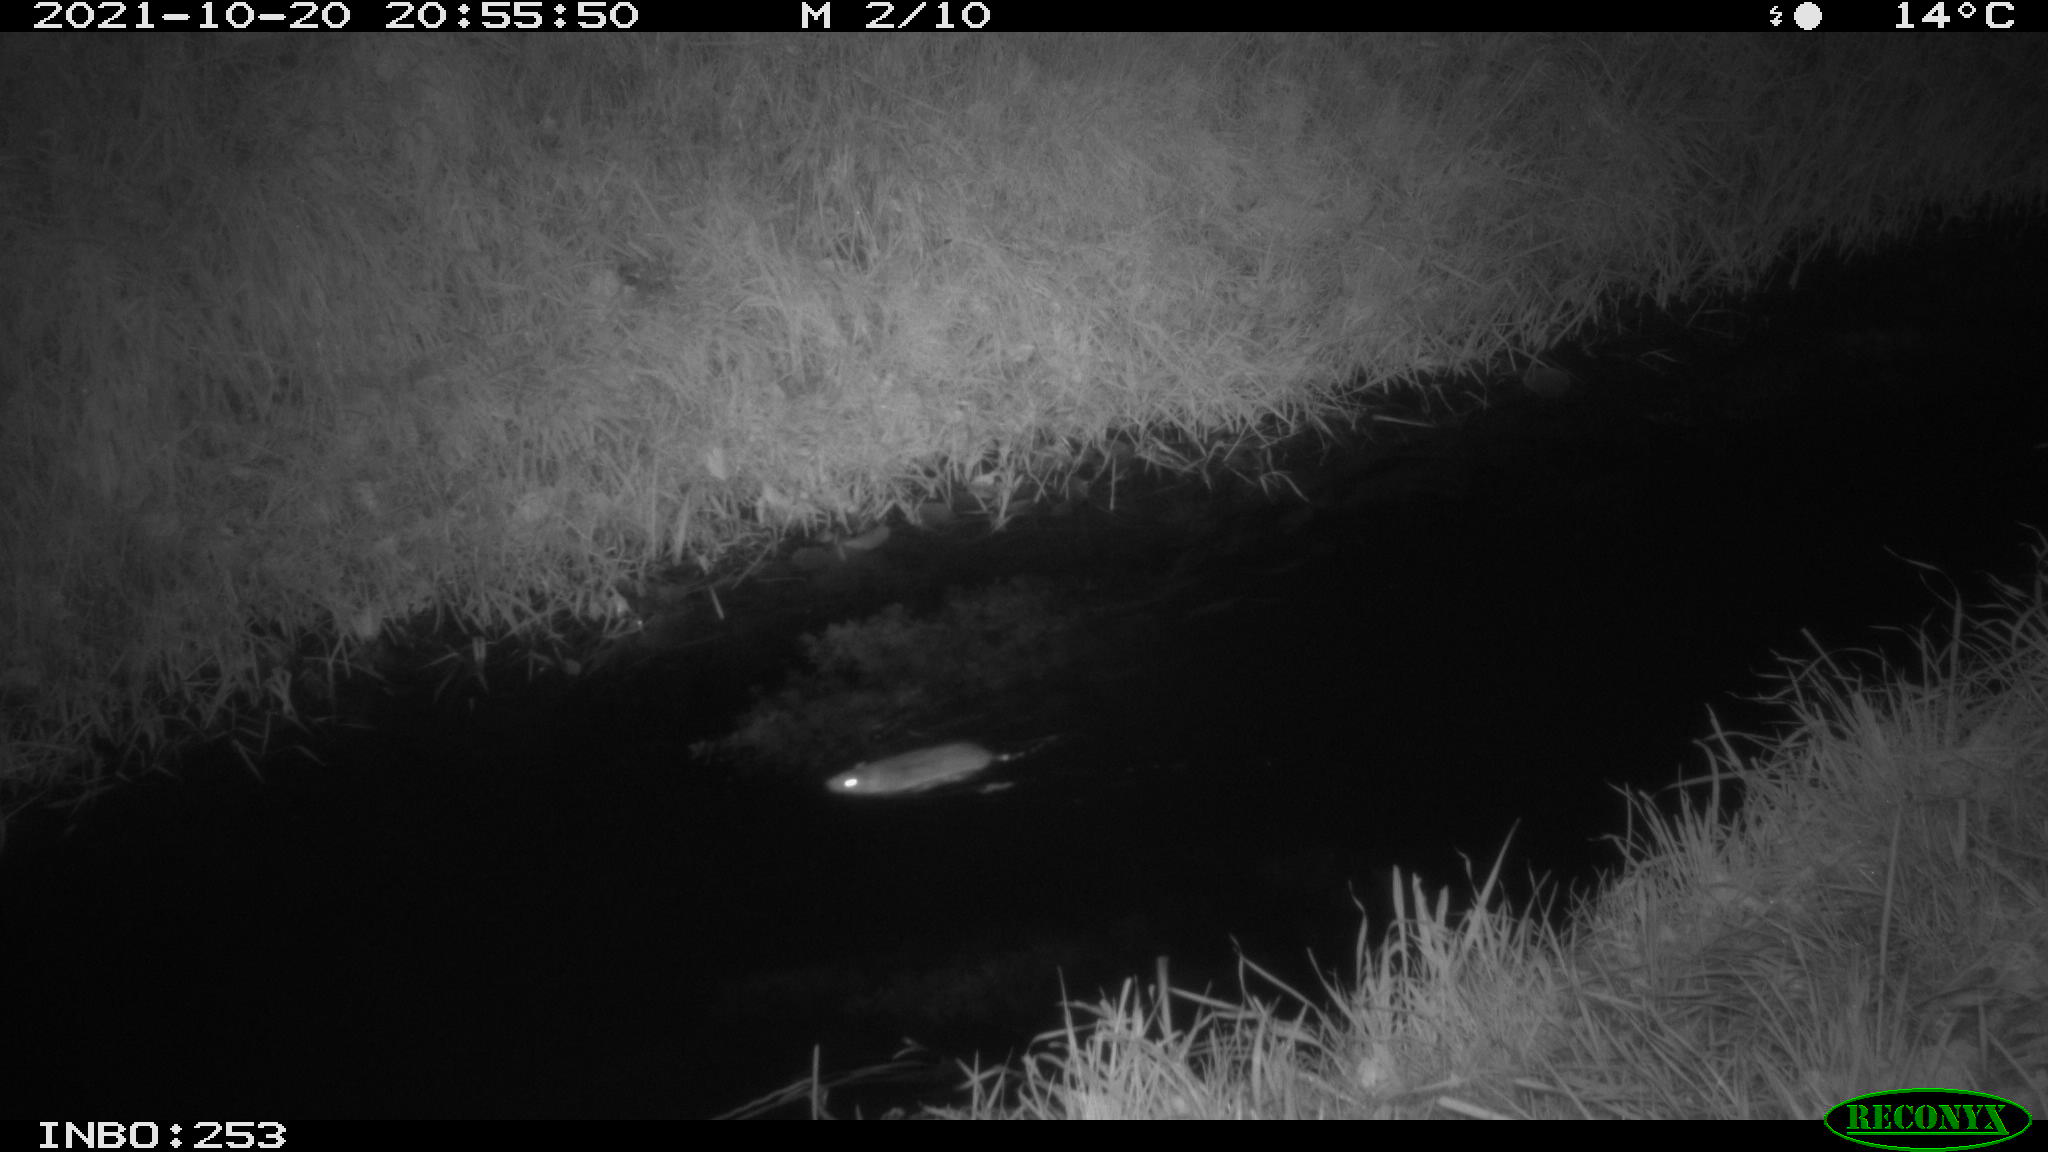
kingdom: Animalia
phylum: Chordata
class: Mammalia
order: Rodentia
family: Muridae
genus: Rattus
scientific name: Rattus norvegicus
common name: Brown rat
